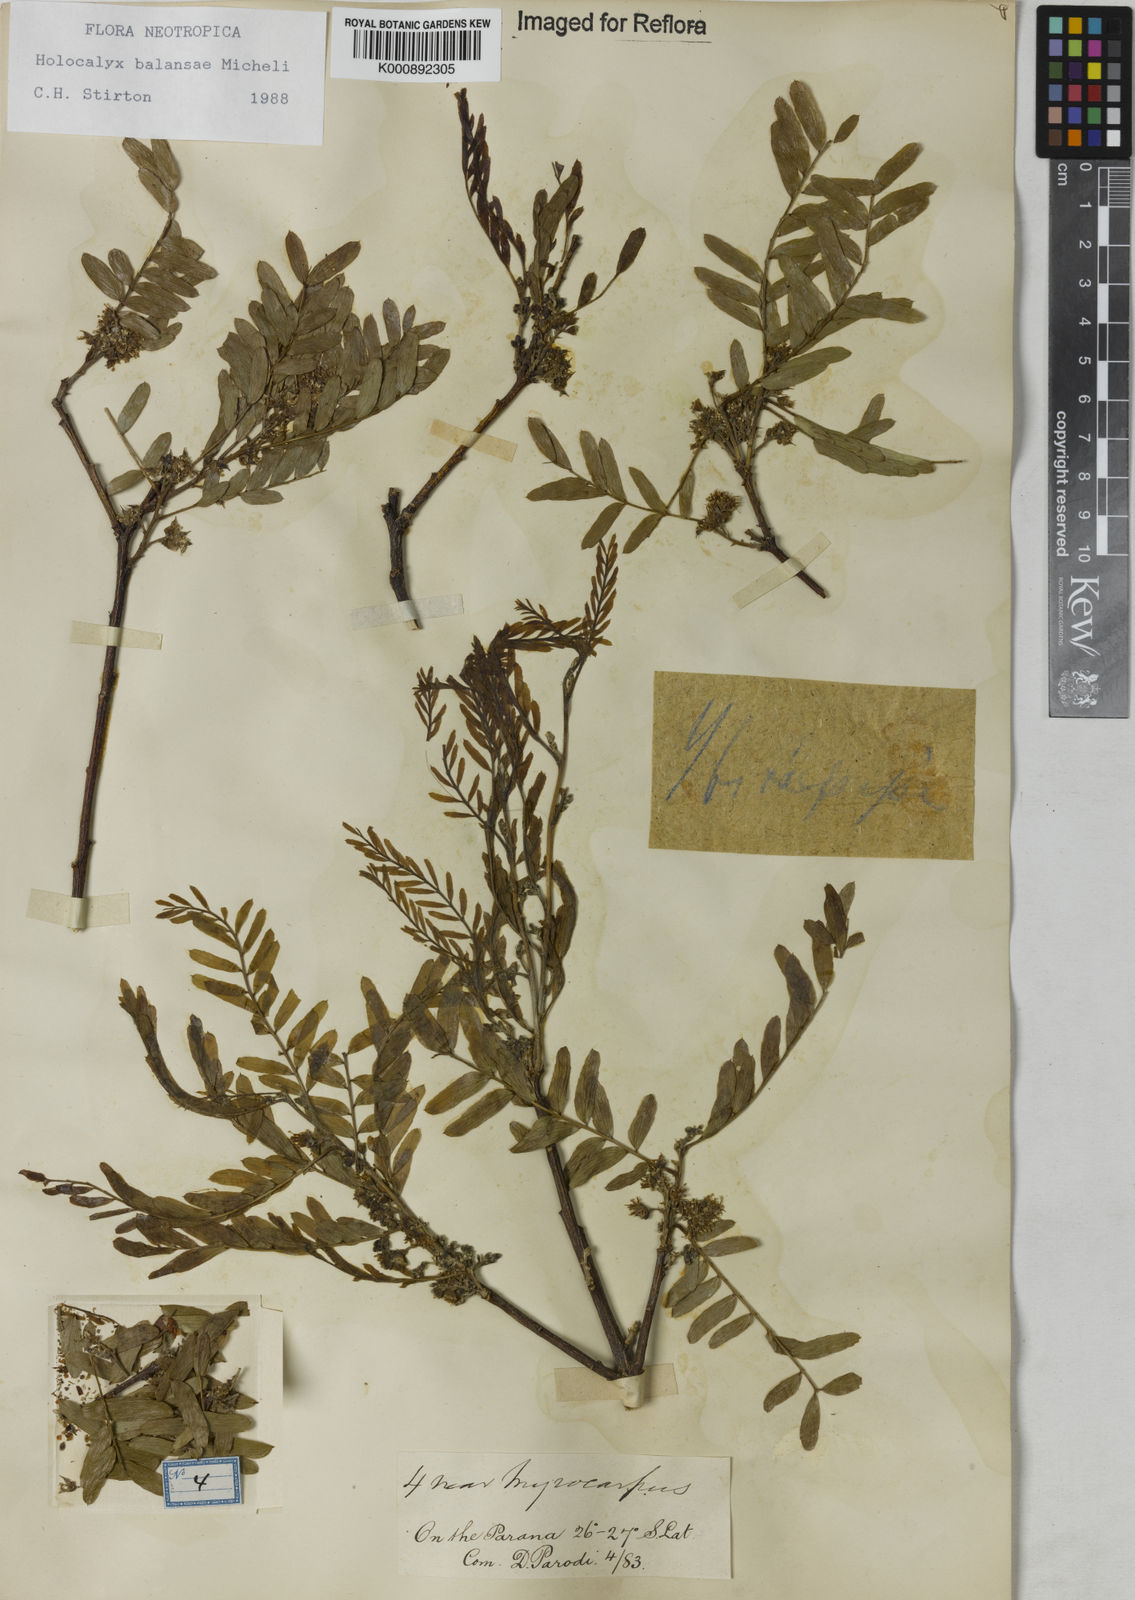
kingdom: Plantae
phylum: Tracheophyta
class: Magnoliopsida
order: Fabales
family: Fabaceae
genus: Holocalyx
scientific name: Holocalyx
